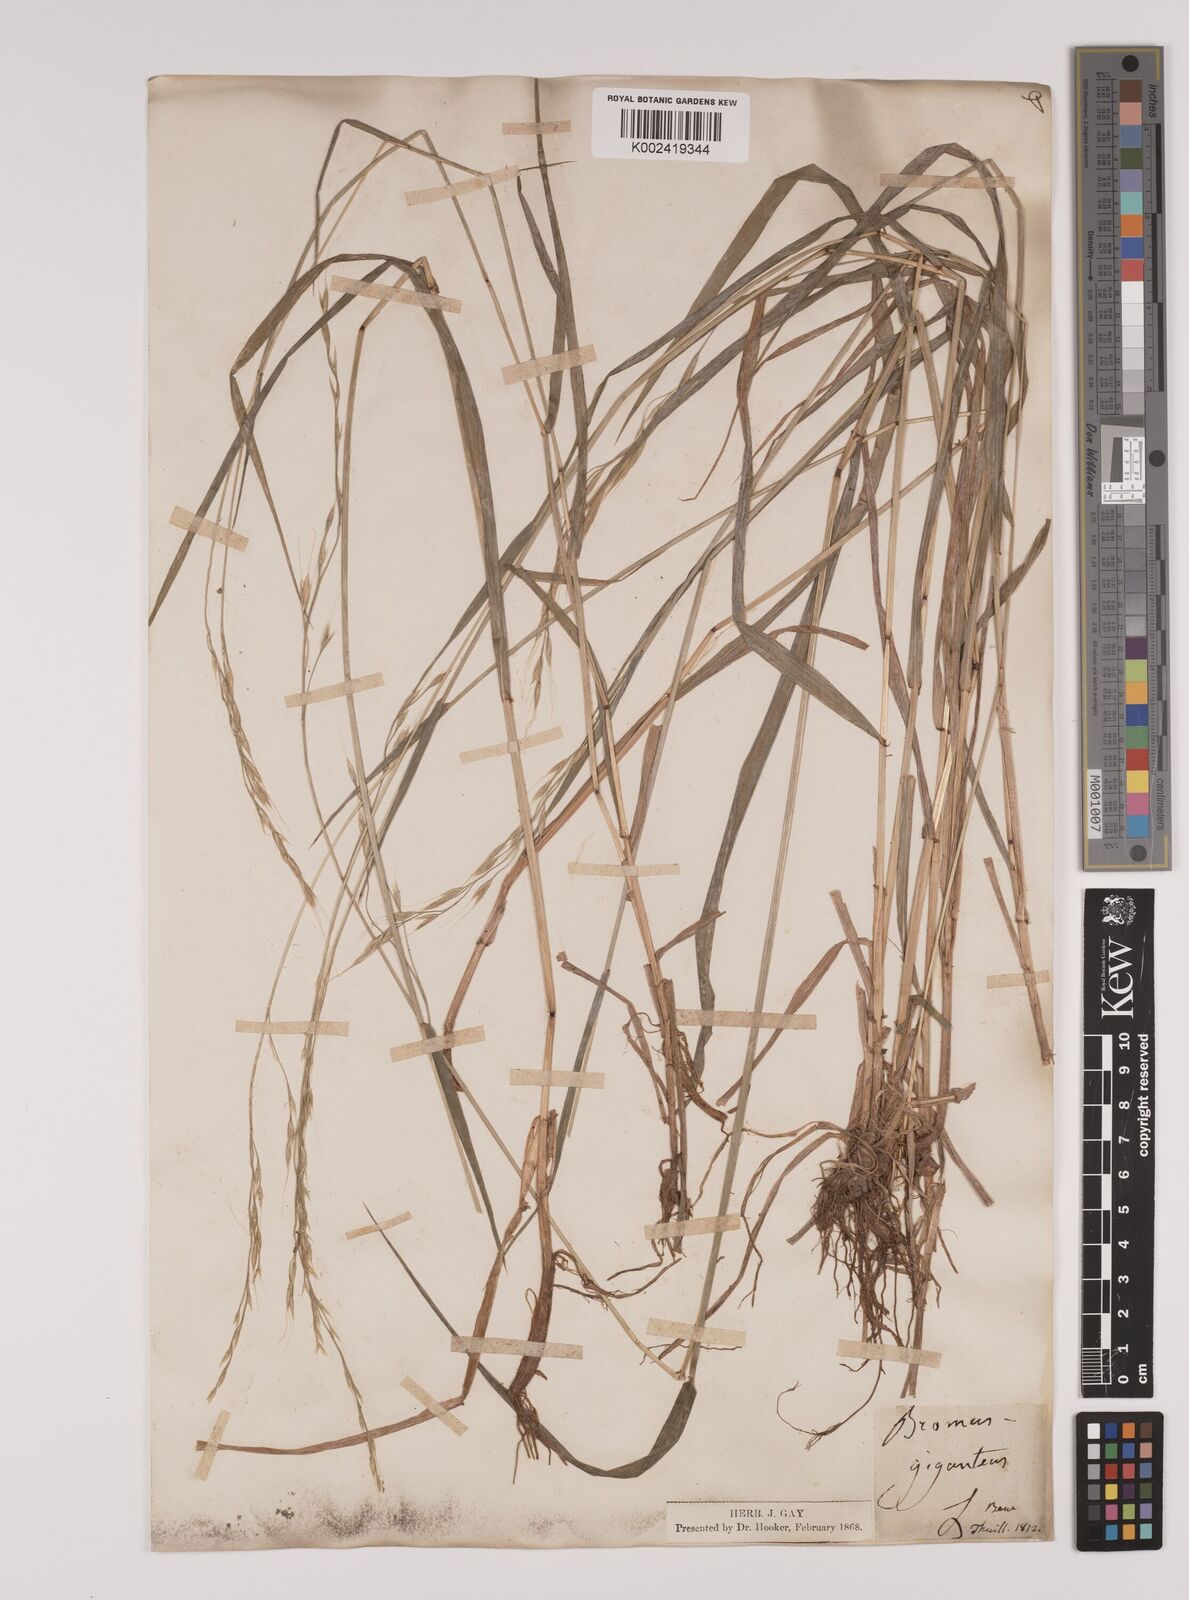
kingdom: Plantae
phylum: Tracheophyta
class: Liliopsida
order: Poales
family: Poaceae
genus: Lolium
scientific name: Lolium giganteum
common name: Giant fescue
